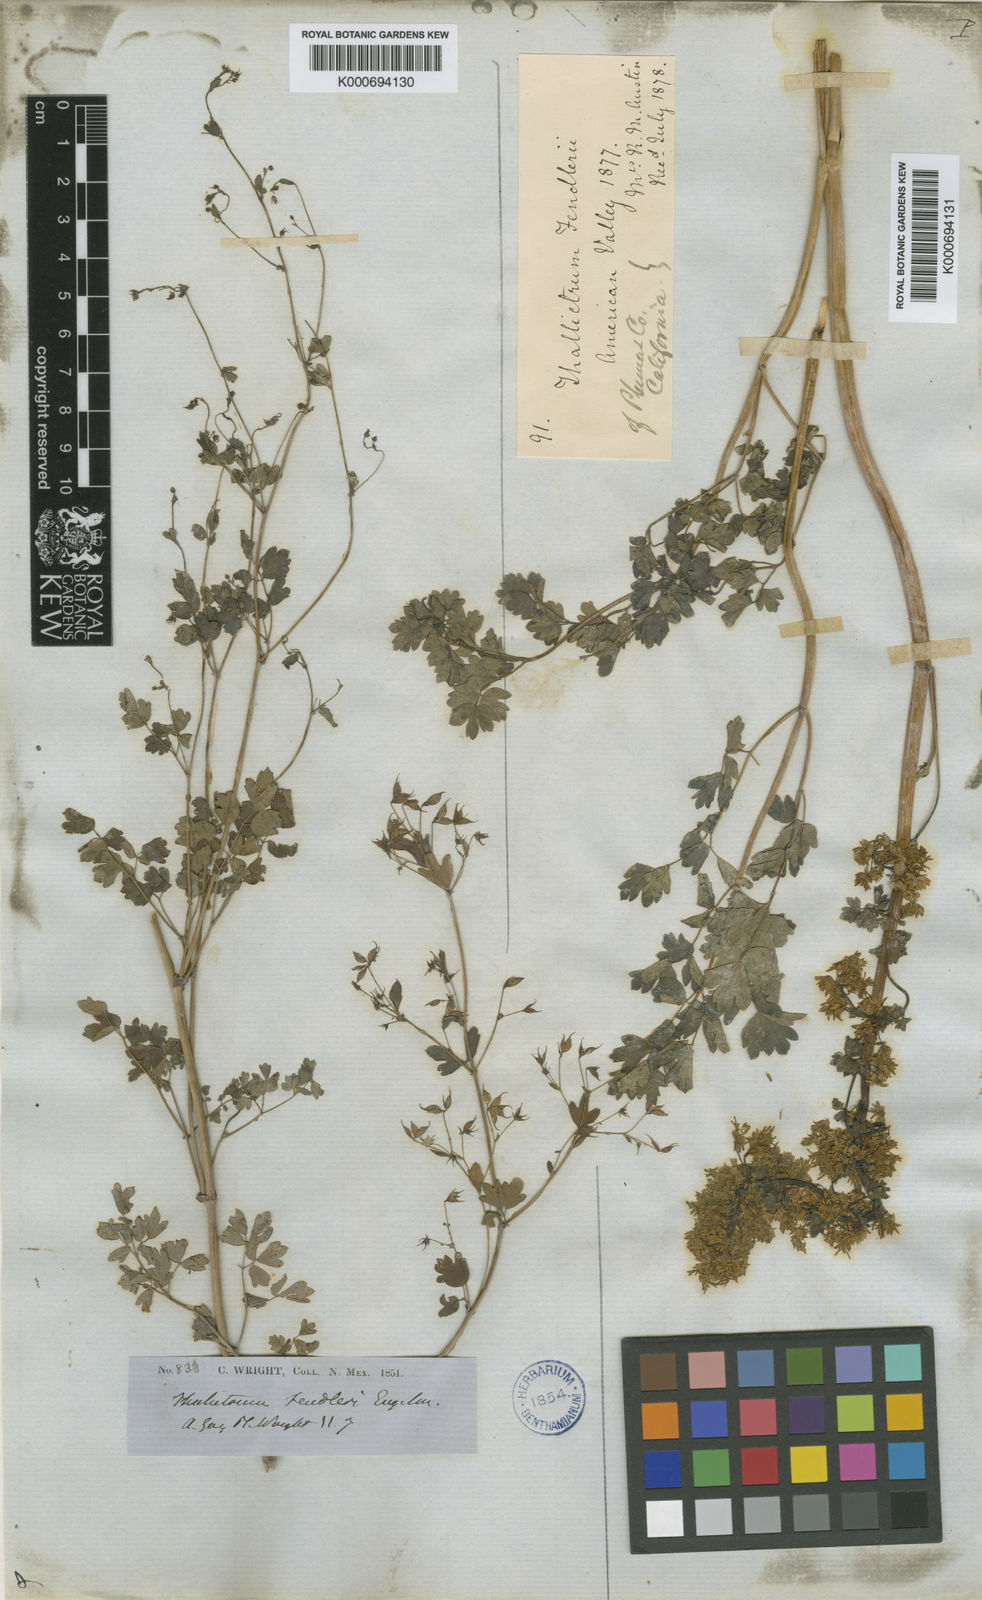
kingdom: Plantae
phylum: Tracheophyta
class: Magnoliopsida
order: Ranunculales
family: Ranunculaceae
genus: Thalictrum
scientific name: Thalictrum fendleri
